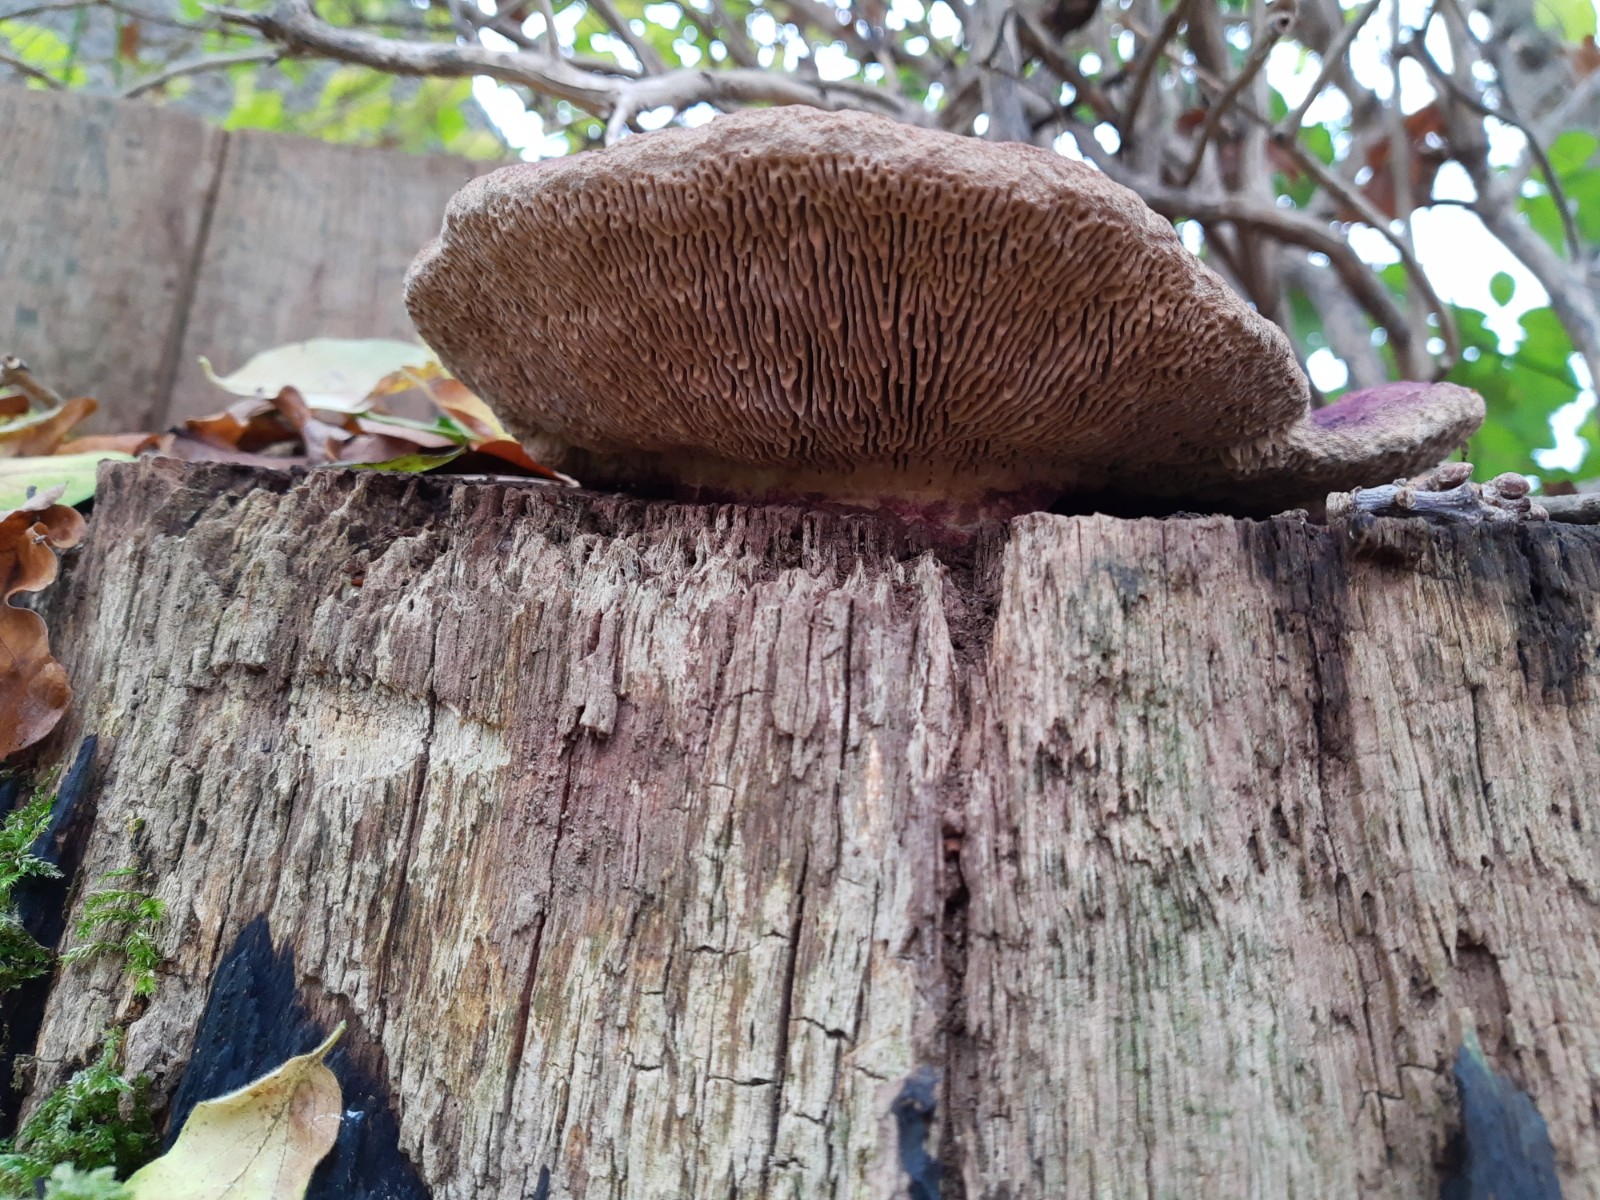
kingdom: Fungi
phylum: Basidiomycota
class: Agaricomycetes
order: Polyporales
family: Fomitopsidaceae
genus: Daedalea
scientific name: Daedalea quercina
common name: ege-labyrintsvamp
